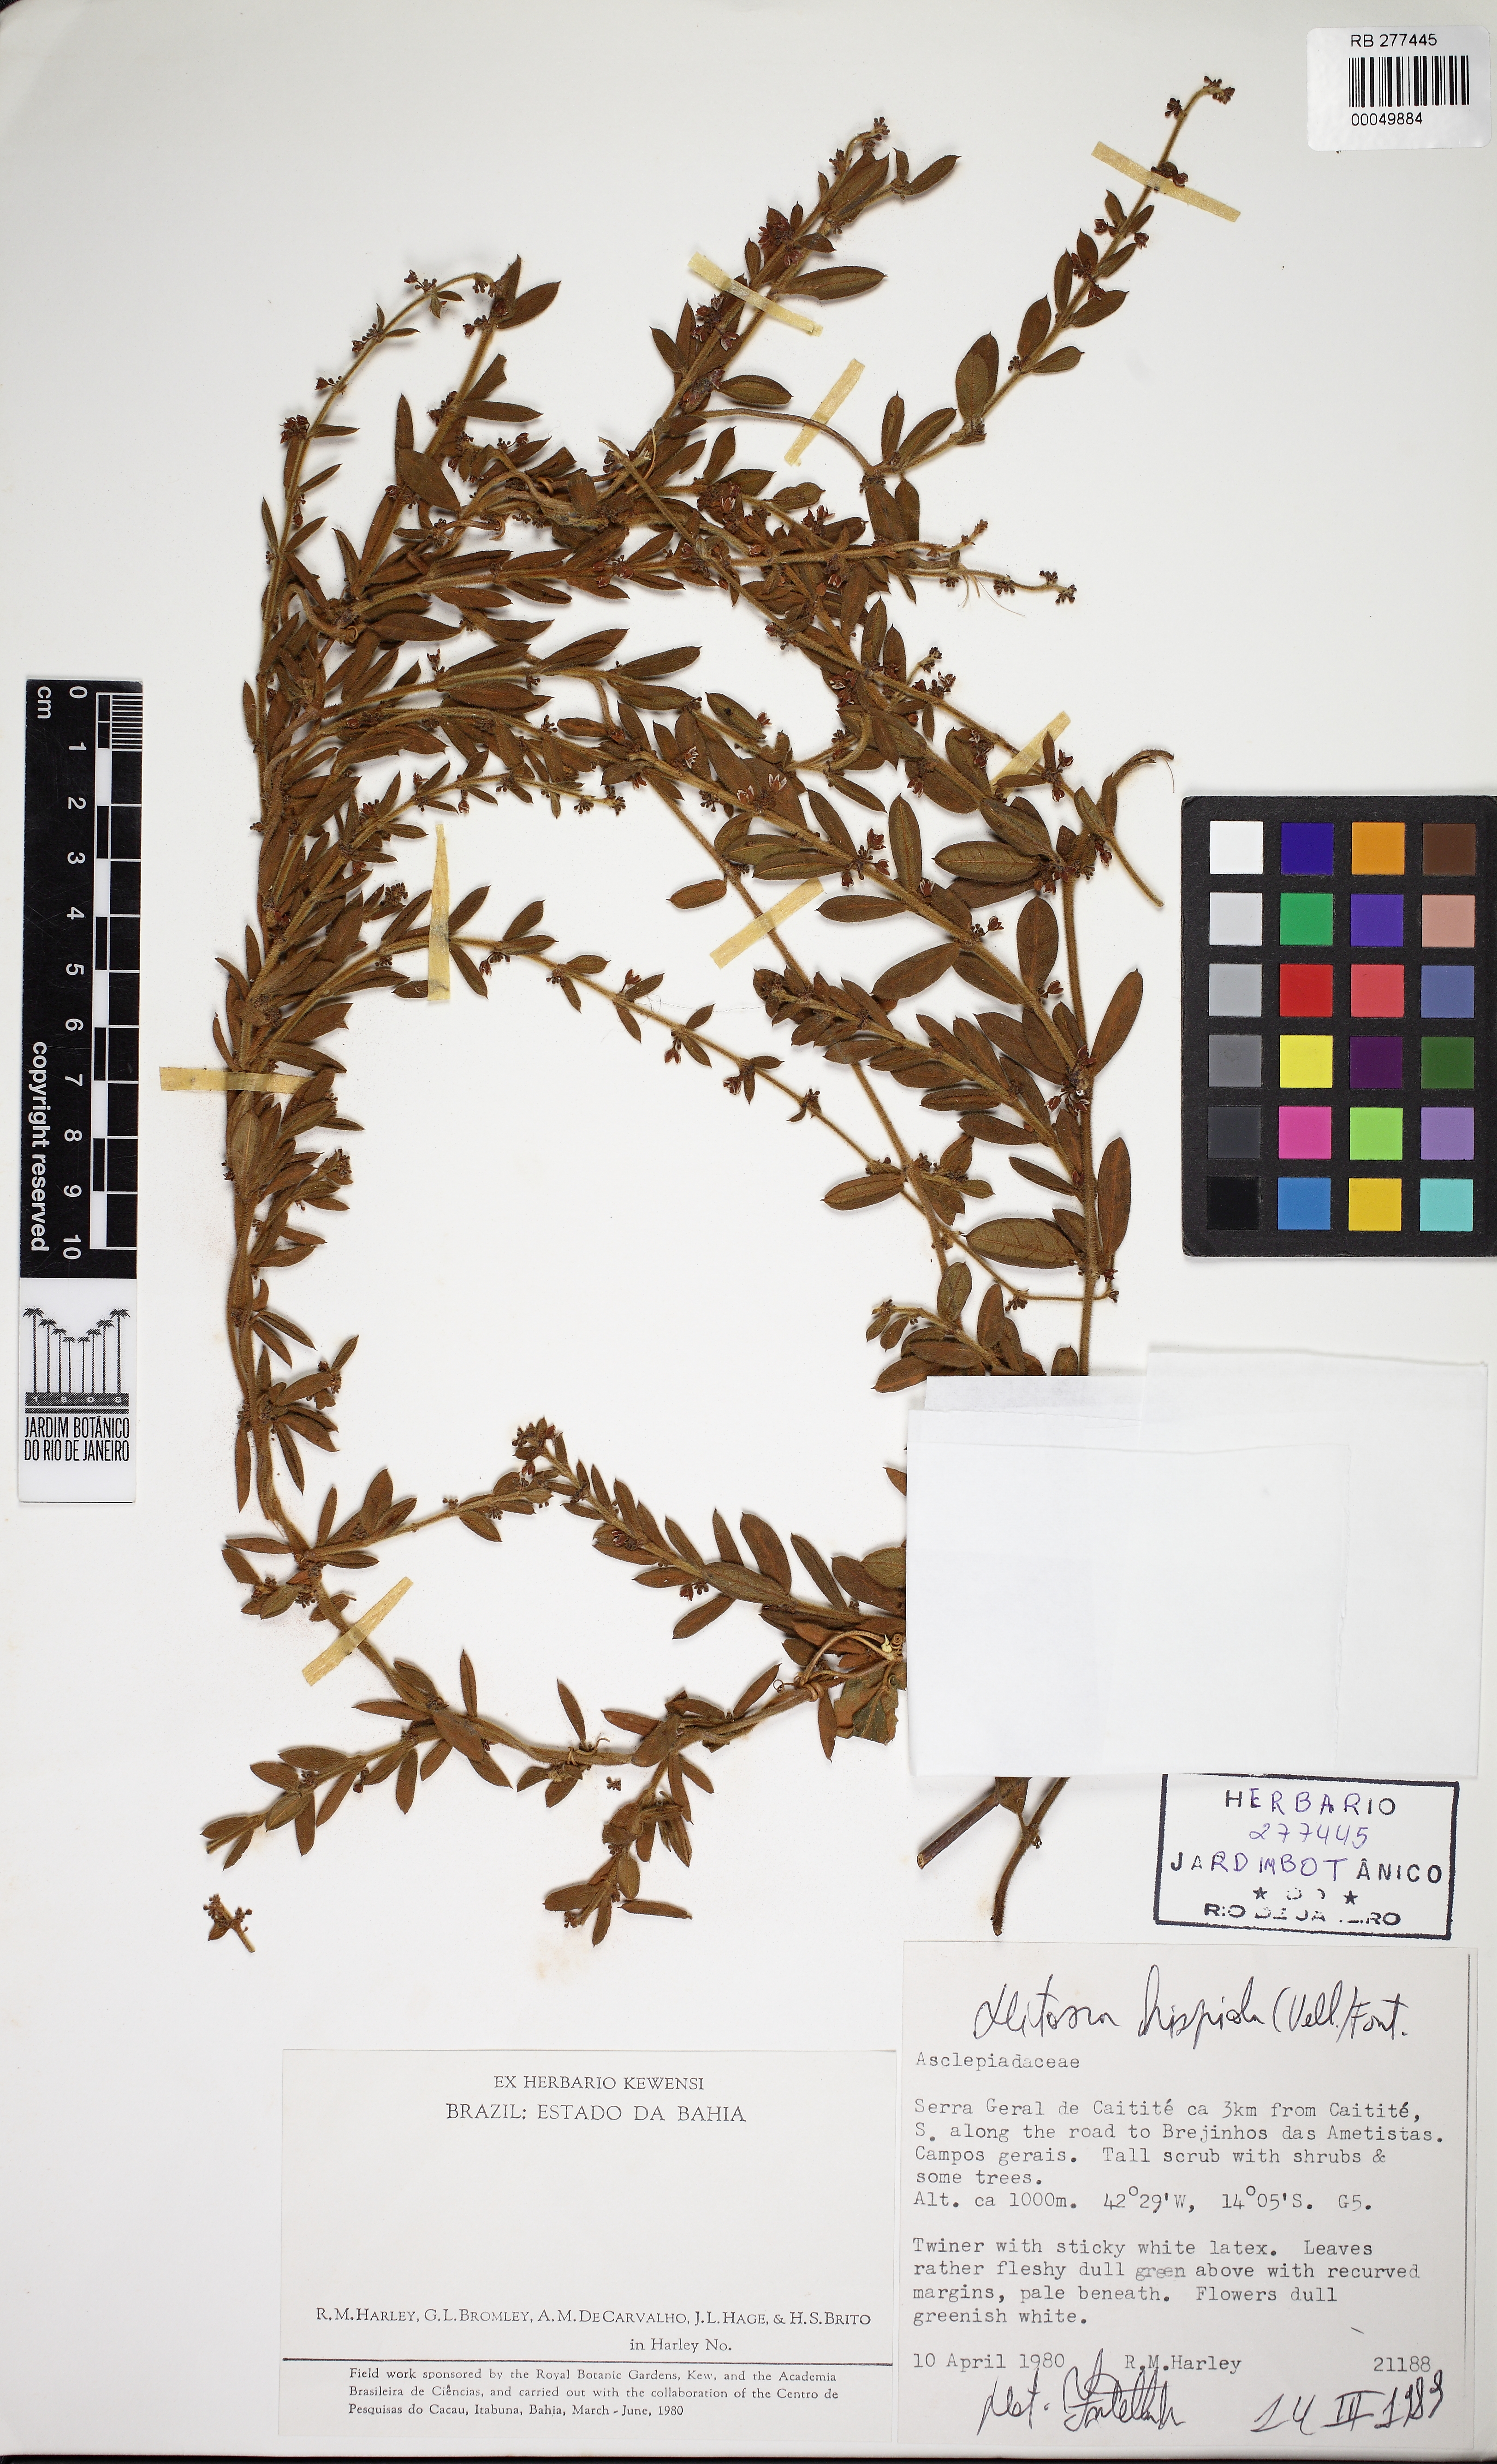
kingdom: Plantae
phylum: Tracheophyta
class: Magnoliopsida
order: Gentianales
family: Apocynaceae
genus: Ditassa
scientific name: Ditassa hispida
